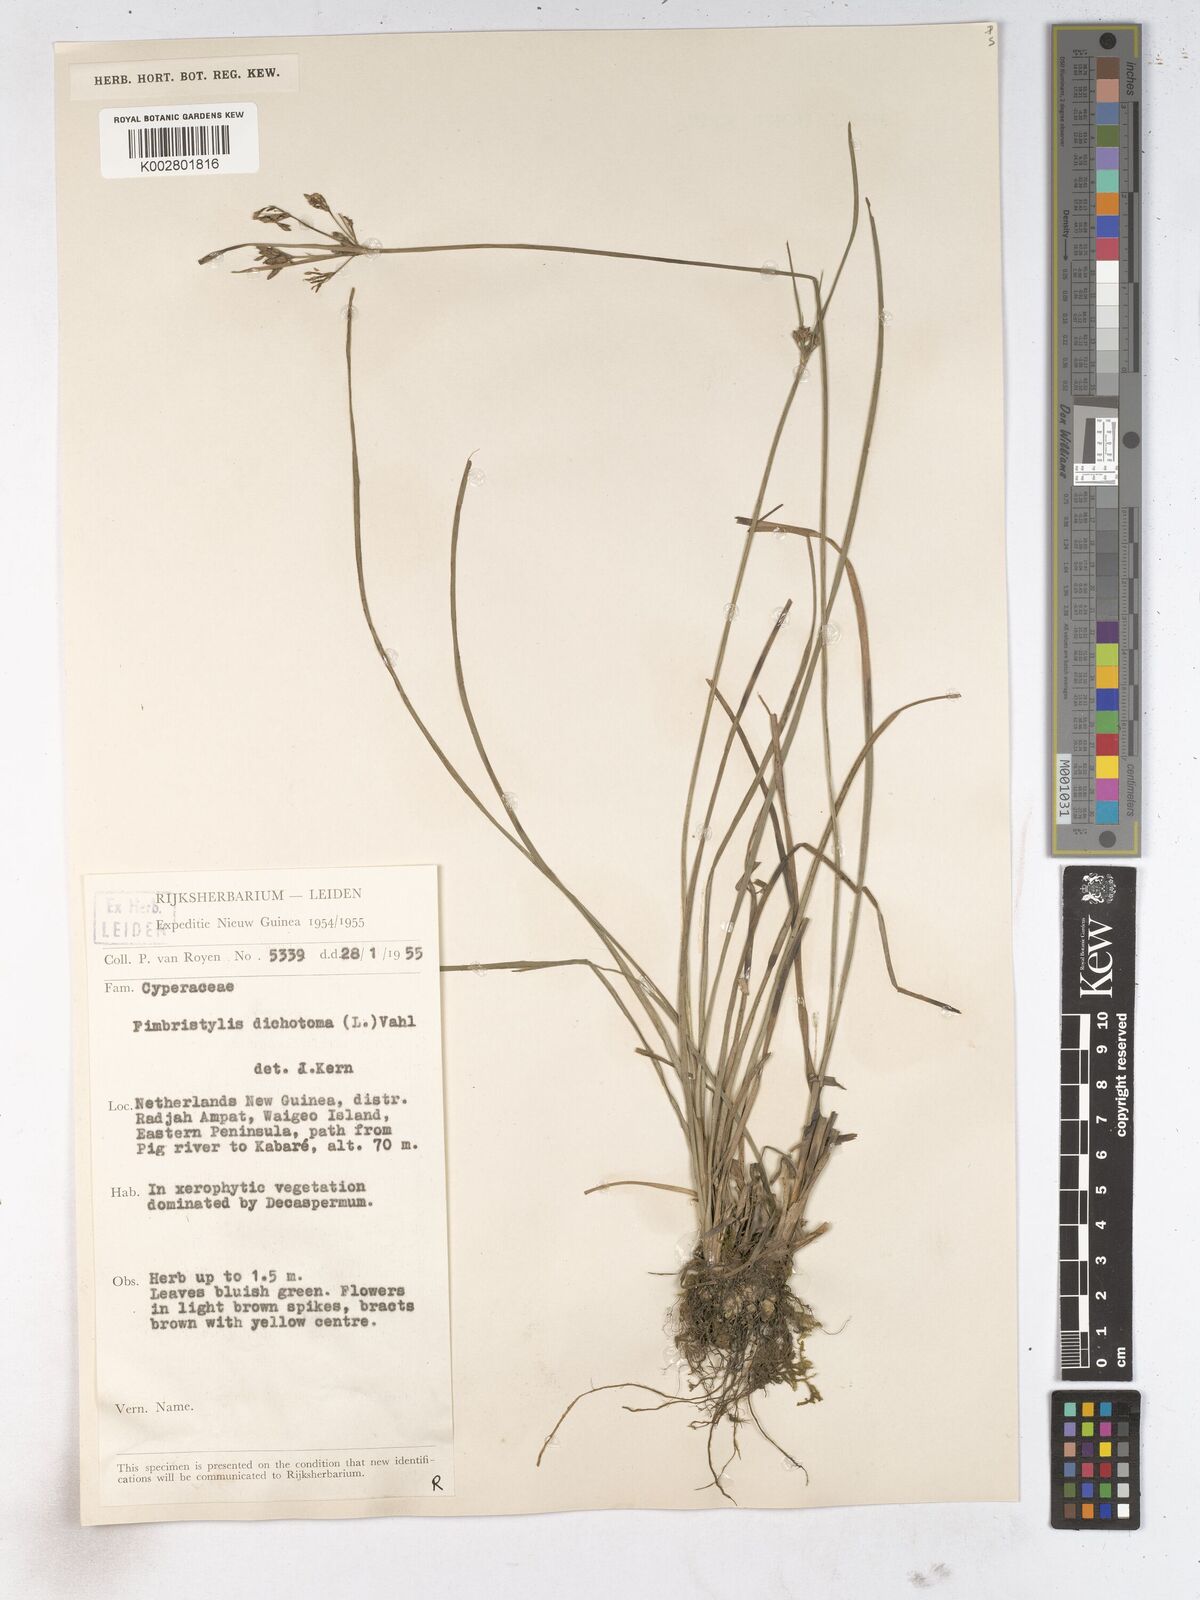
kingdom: Plantae
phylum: Tracheophyta
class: Liliopsida
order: Poales
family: Cyperaceae
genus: Fimbristylis
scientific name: Fimbristylis dichotoma
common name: Forked fimbry
